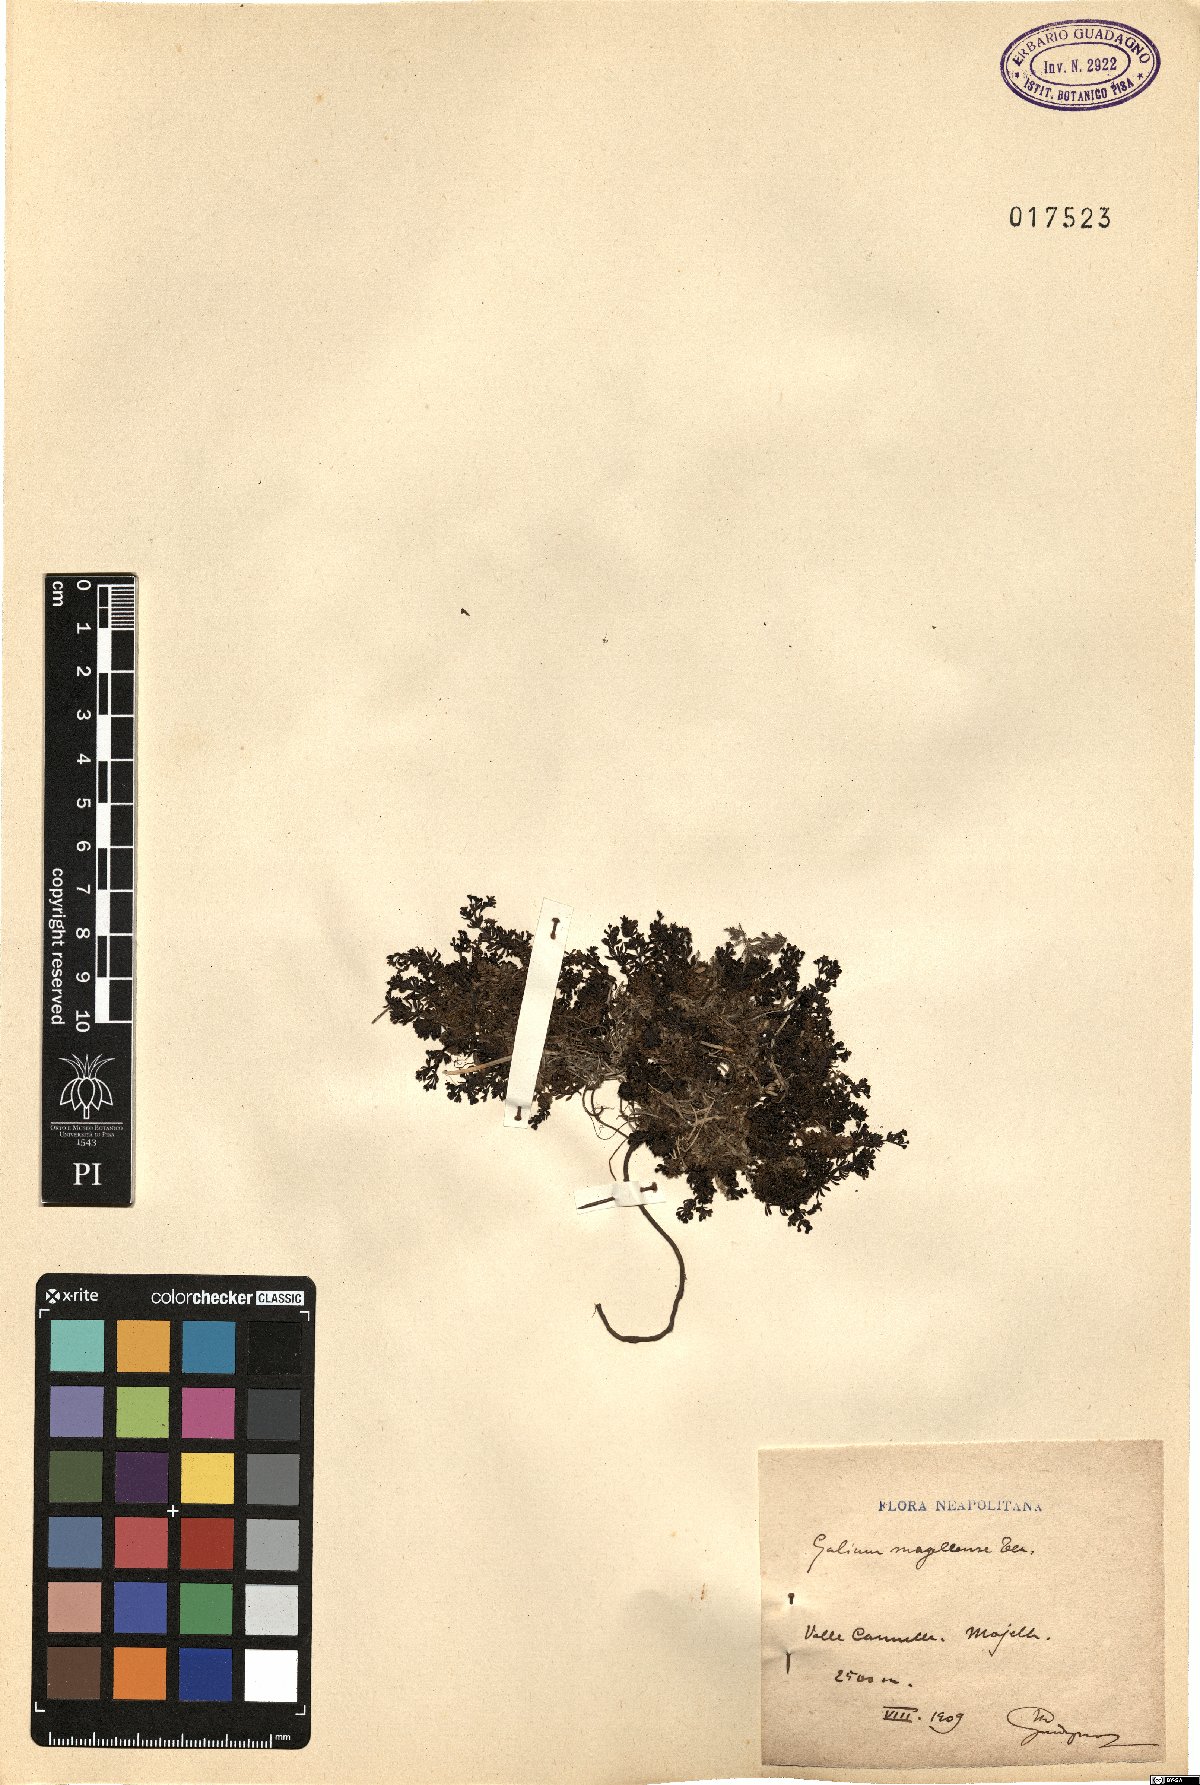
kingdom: Plantae
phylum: Tracheophyta
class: Magnoliopsida
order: Gentianales
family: Rubiaceae
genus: Galium
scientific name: Galium magellense
